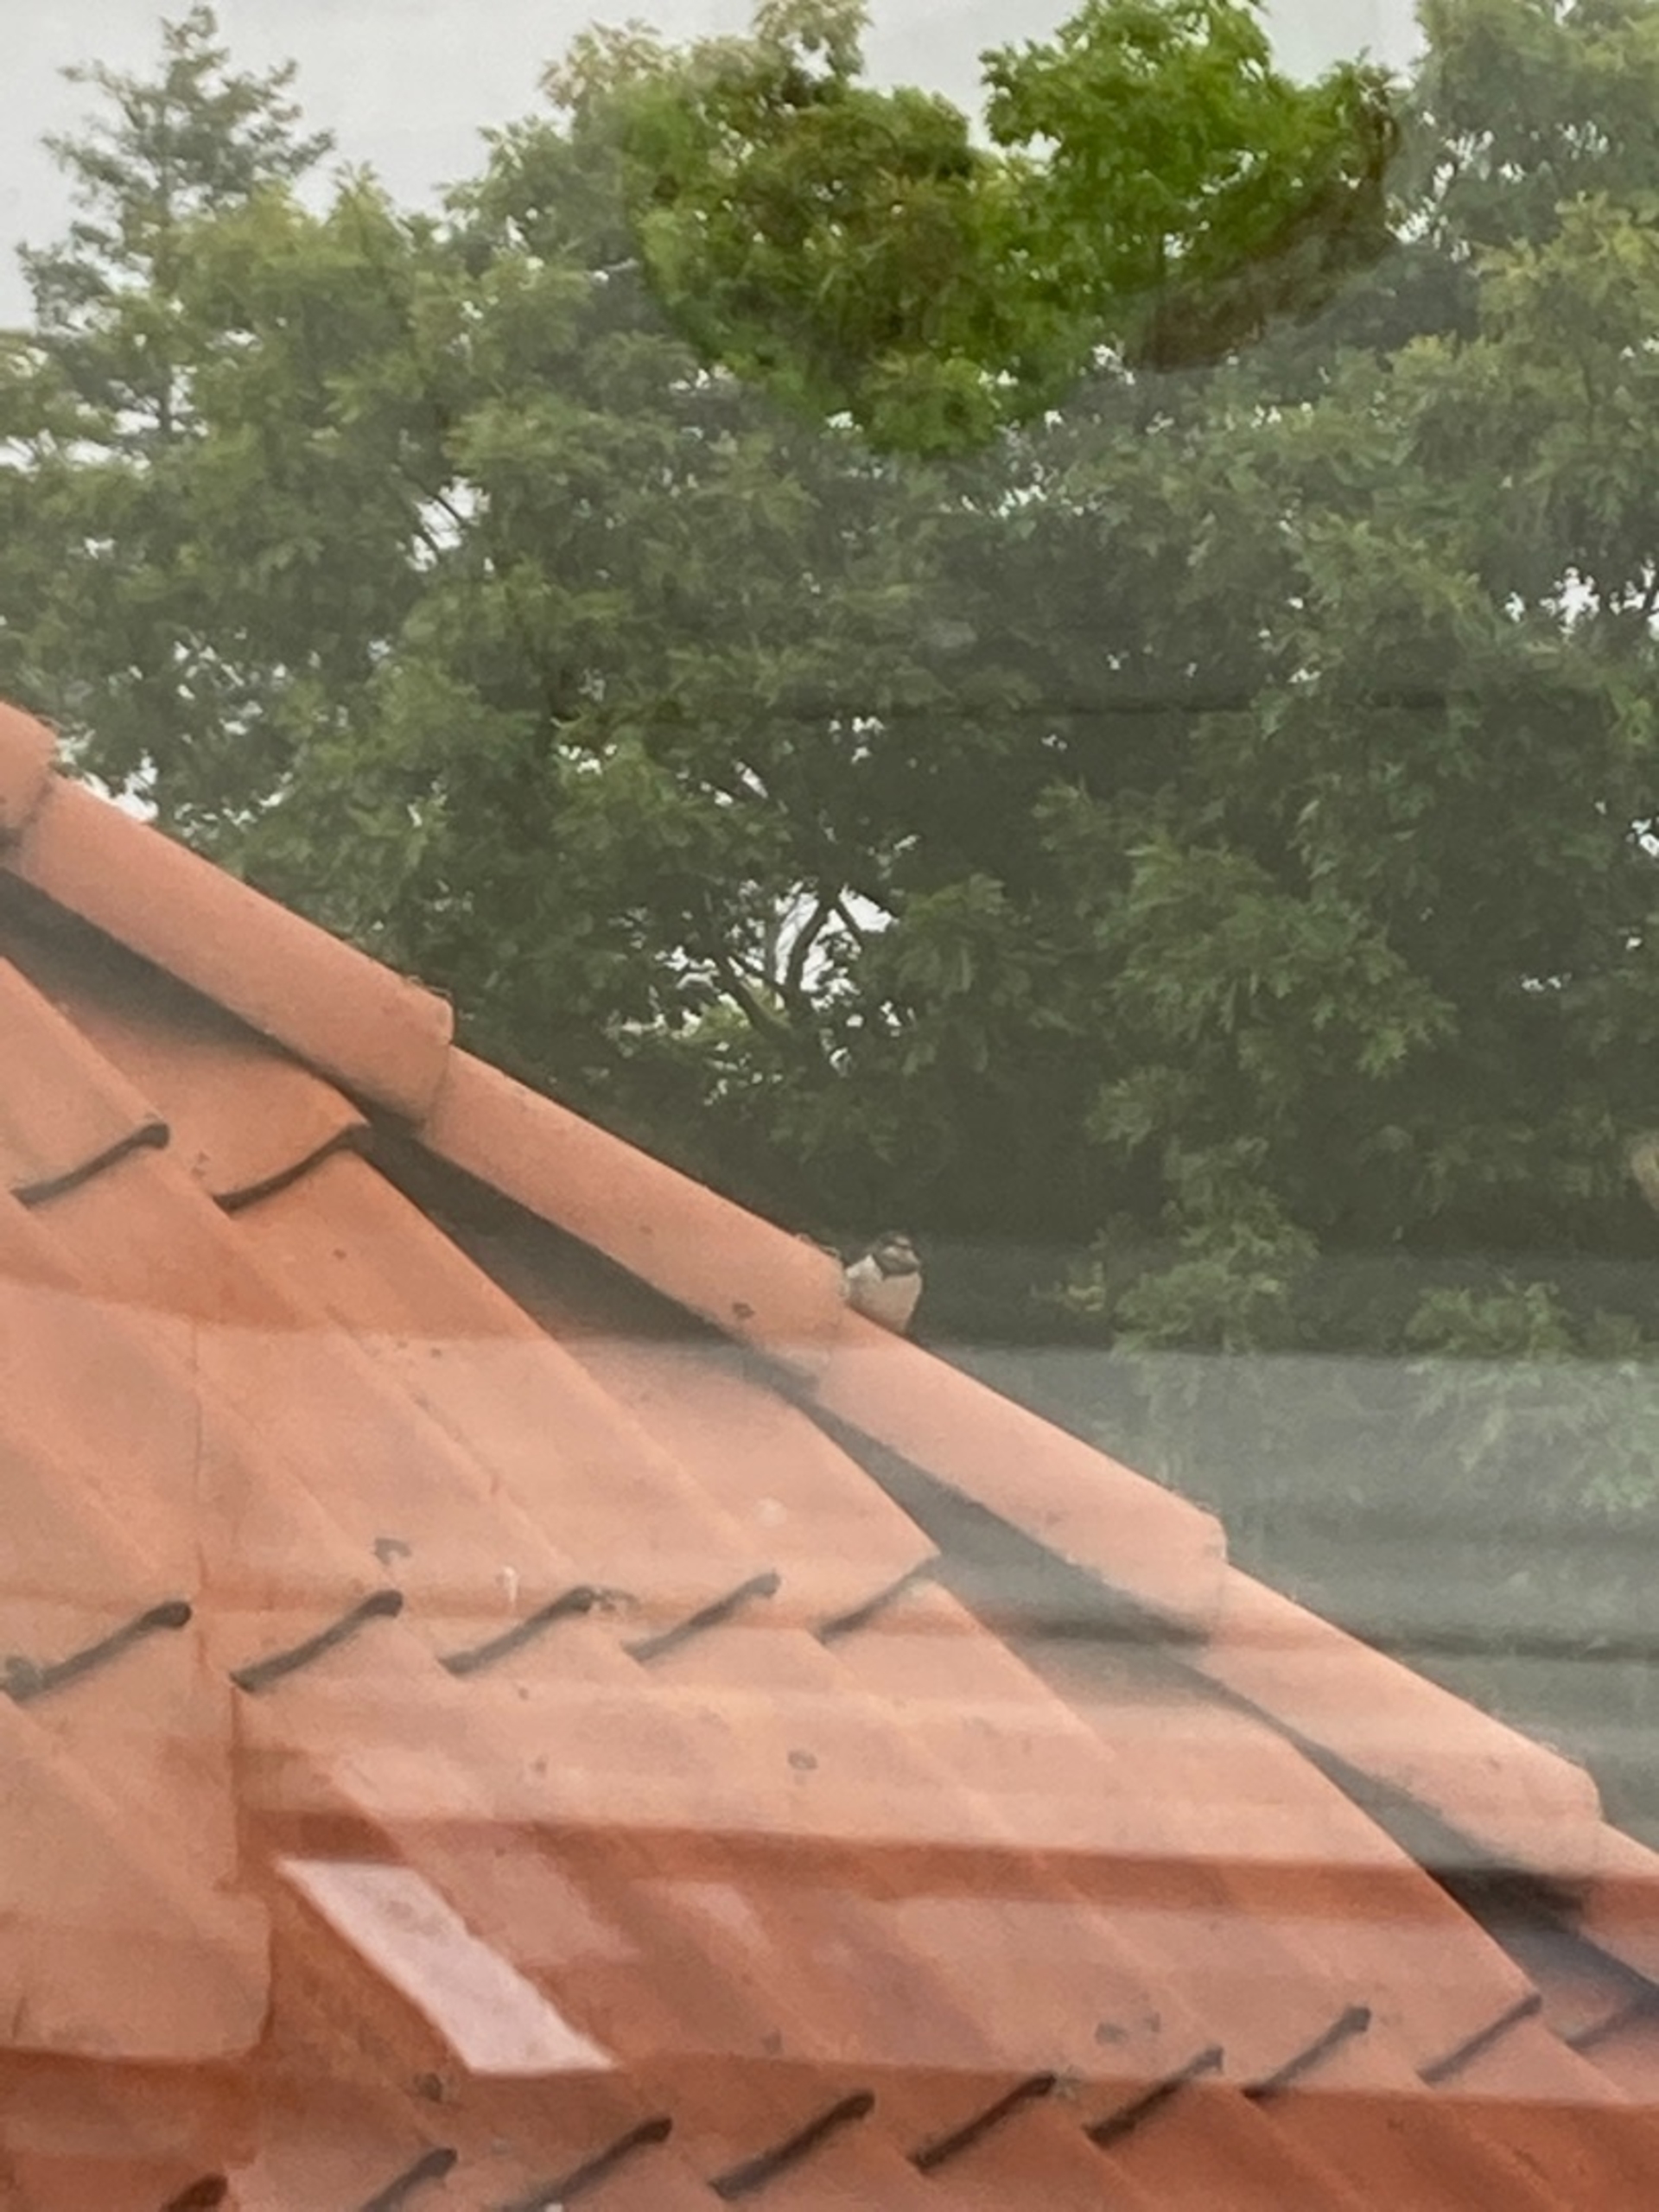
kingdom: Animalia
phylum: Chordata
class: Aves
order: Passeriformes
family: Hirundinidae
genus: Hirundo
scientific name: Hirundo rustica
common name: Landsvale
